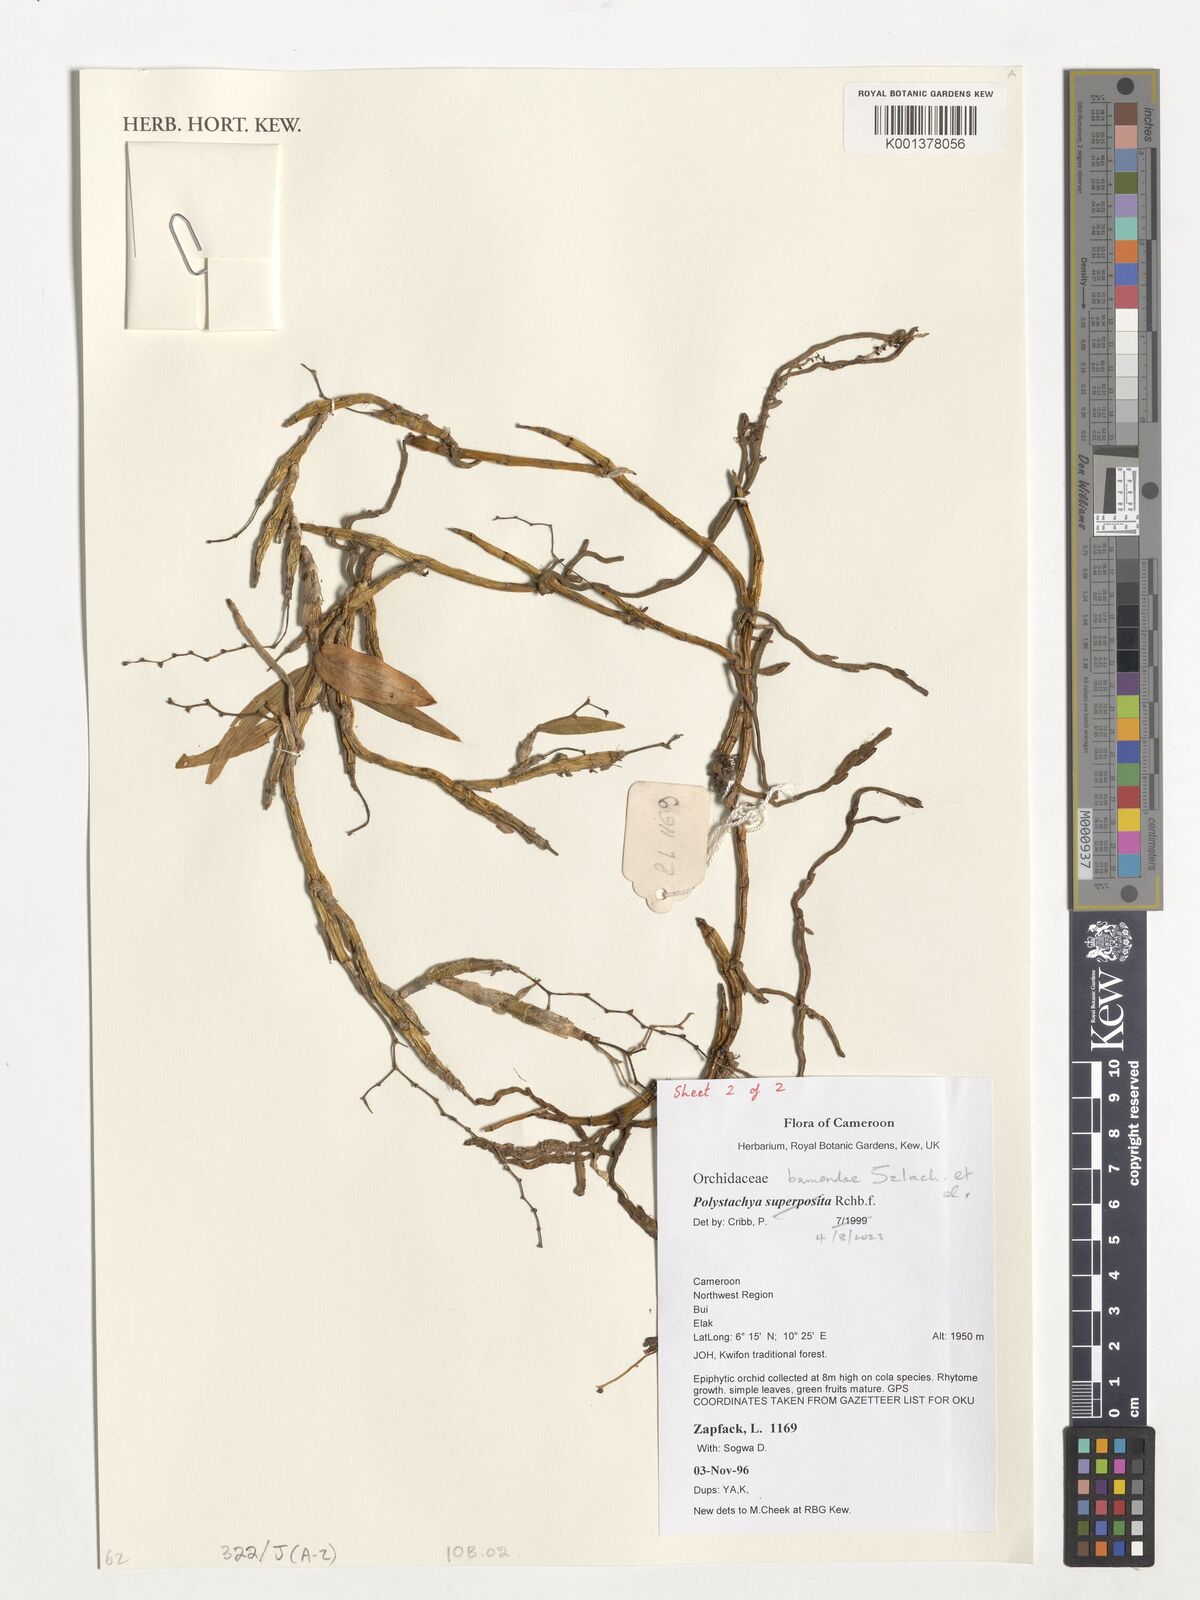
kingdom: Plantae
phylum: Tracheophyta
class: Liliopsida
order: Asparagales
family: Orchidaceae
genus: Polystachya
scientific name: Polystachya bamendae
